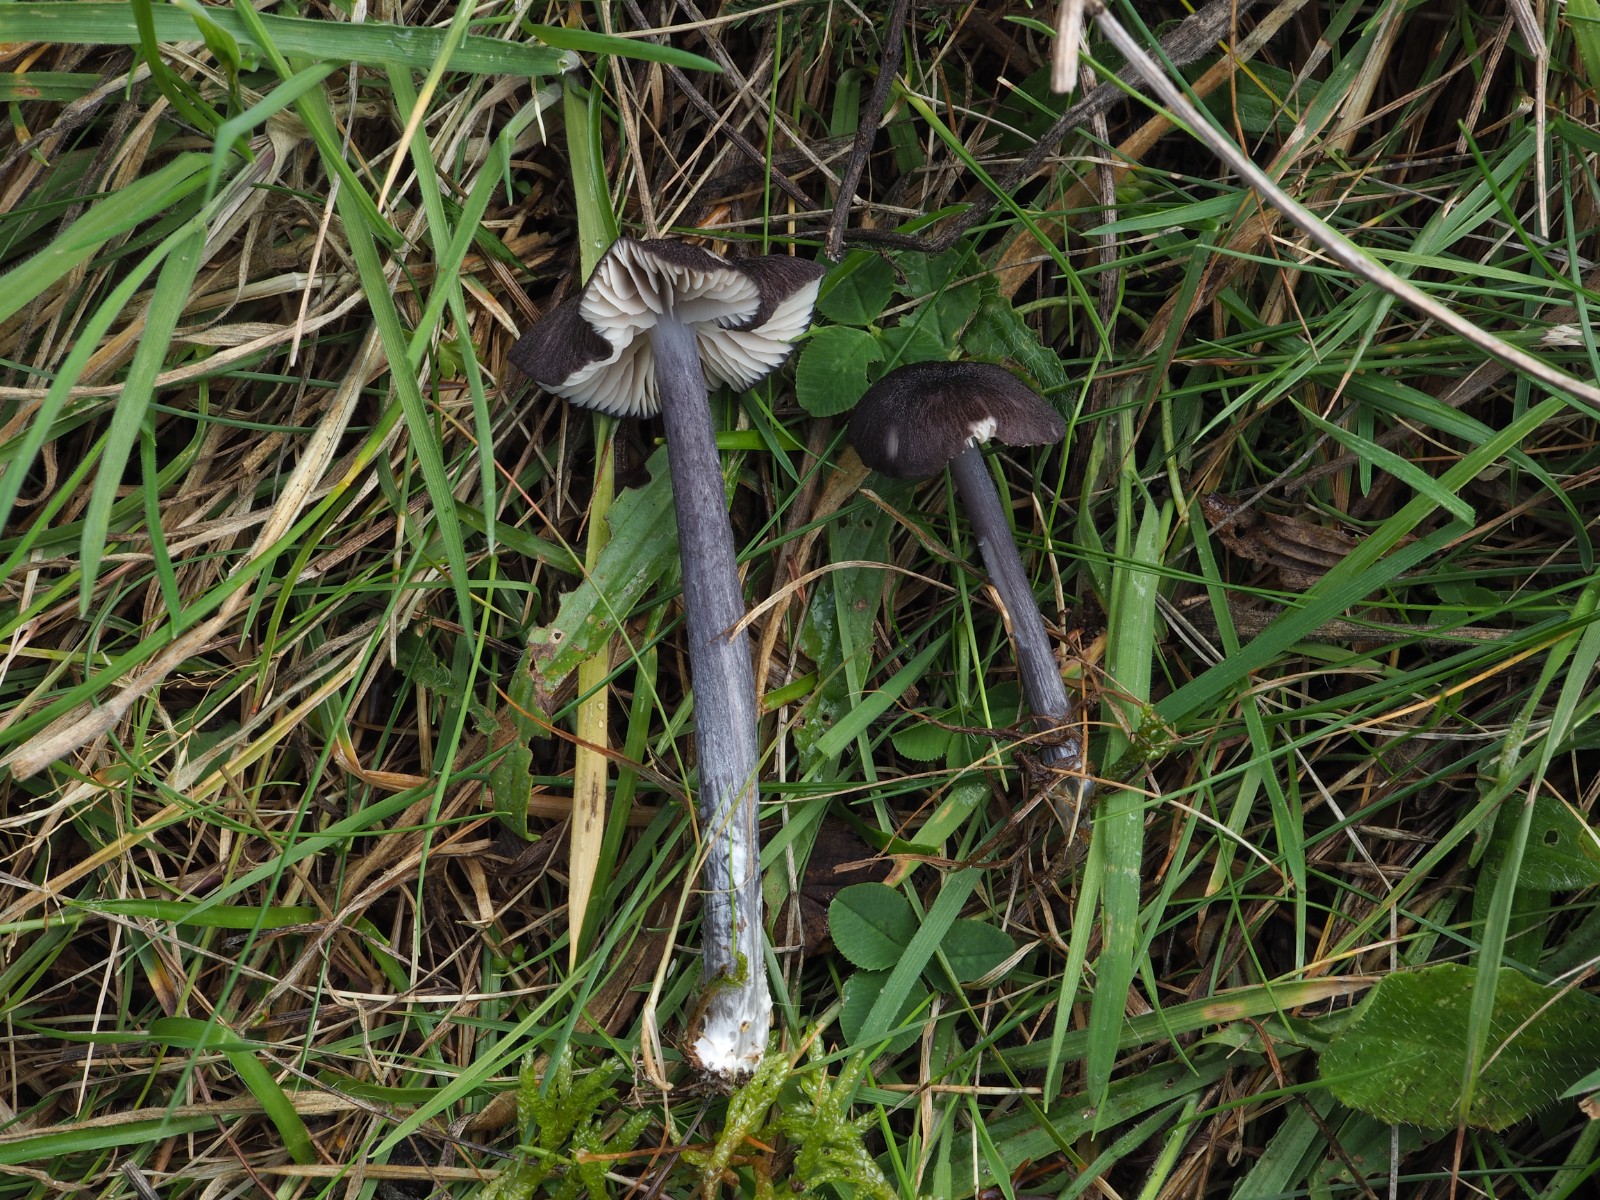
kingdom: Fungi
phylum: Basidiomycota
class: Agaricomycetes
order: Agaricales
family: Entolomataceae
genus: Entoloma
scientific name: Entoloma
